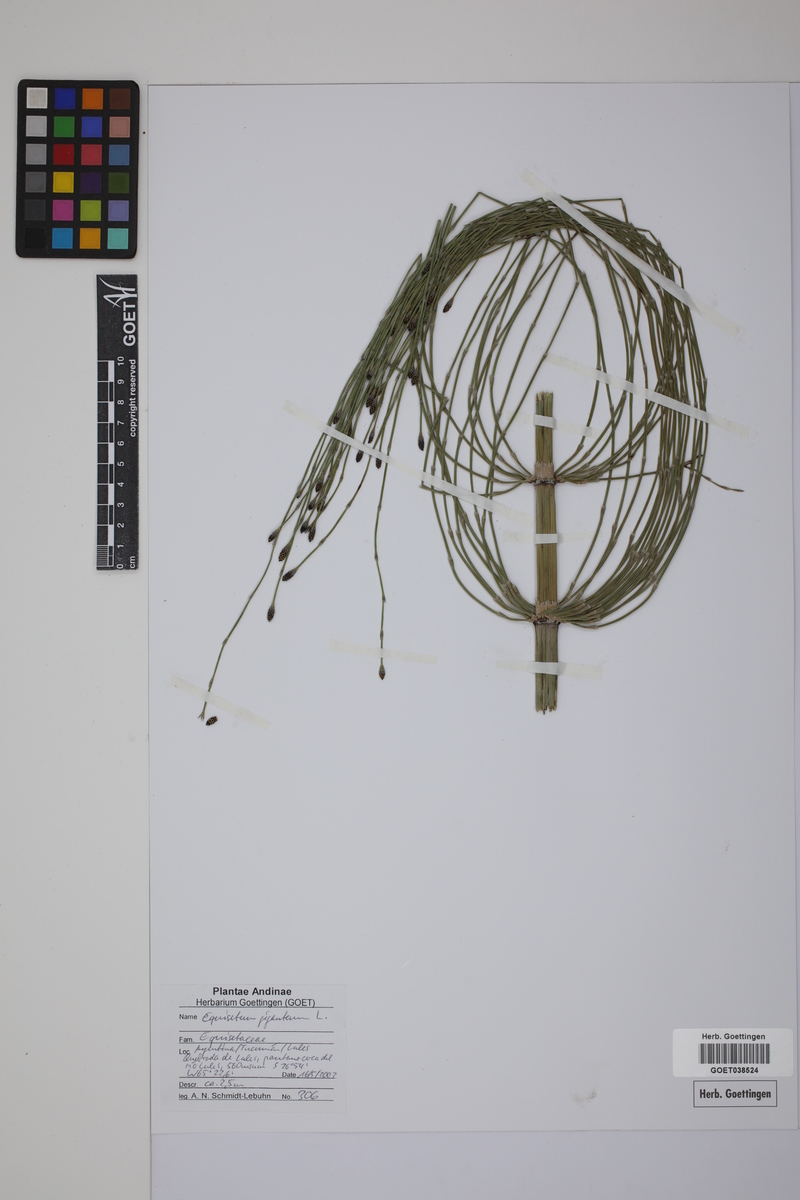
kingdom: Plantae
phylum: Tracheophyta
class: Polypodiopsida
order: Equisetales
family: Equisetaceae
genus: Equisetum
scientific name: Equisetum giganteum
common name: Giant horsetail
